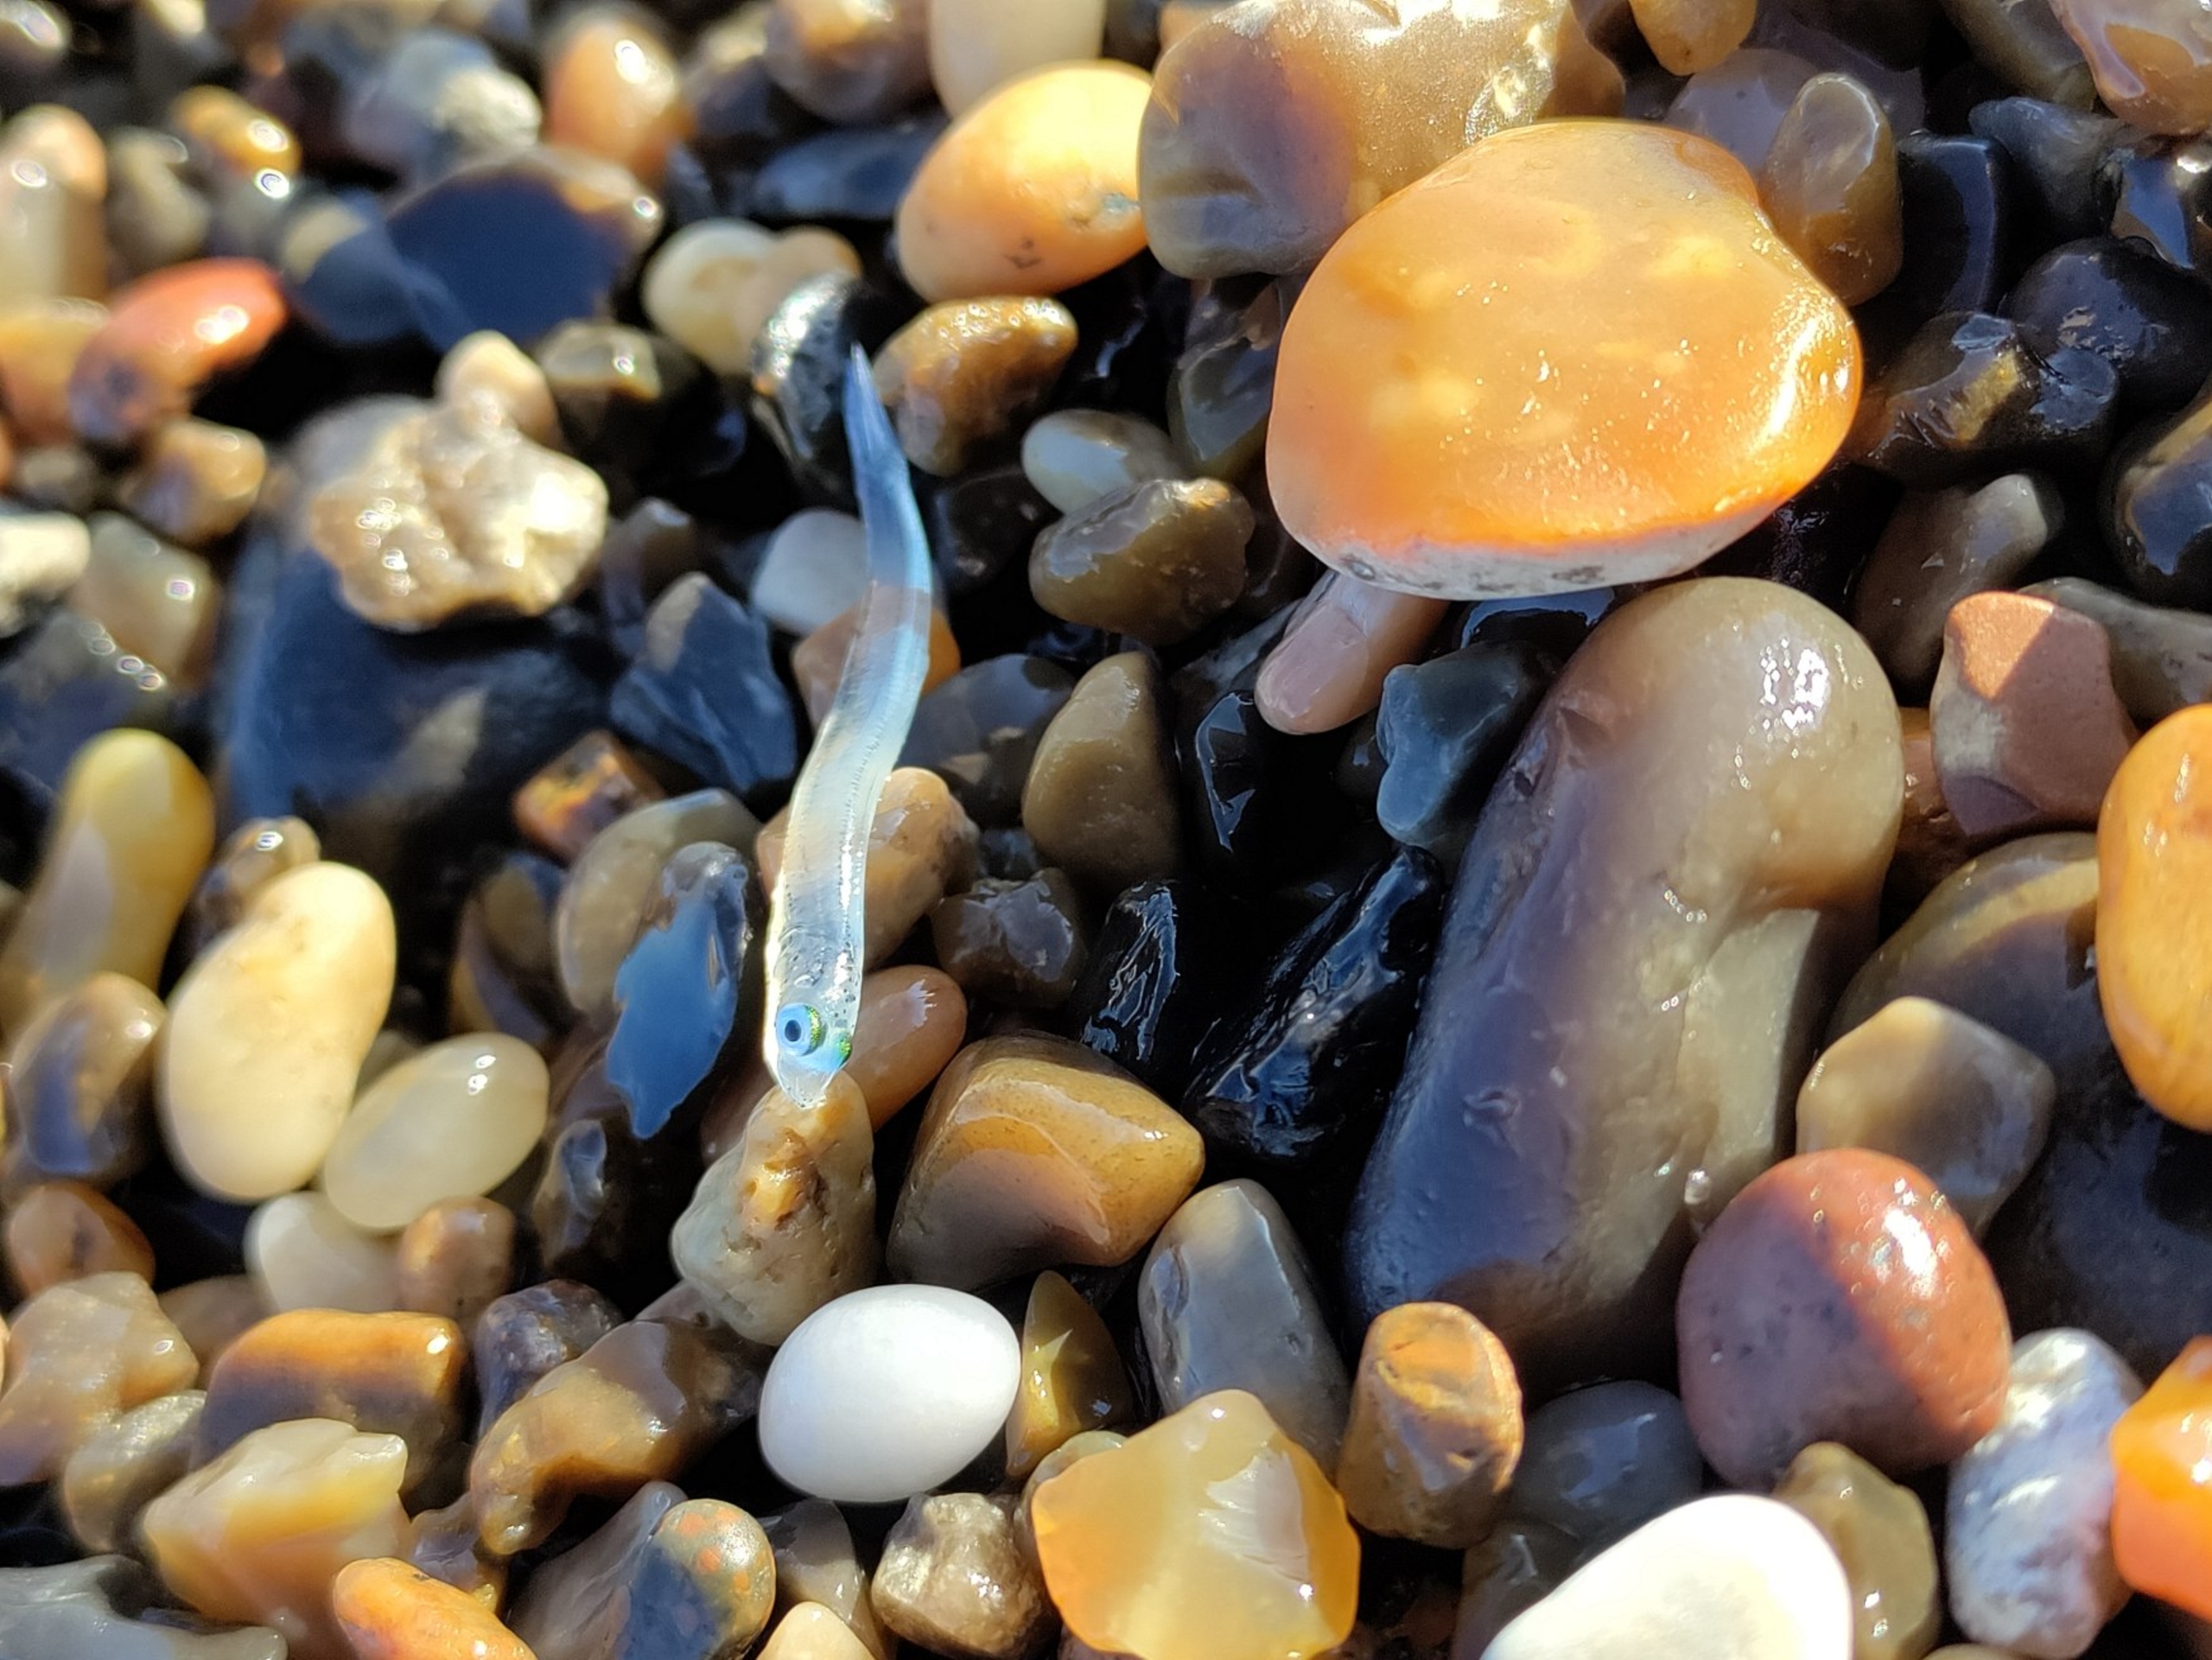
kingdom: Animalia
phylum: Chordata
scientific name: Chordata
